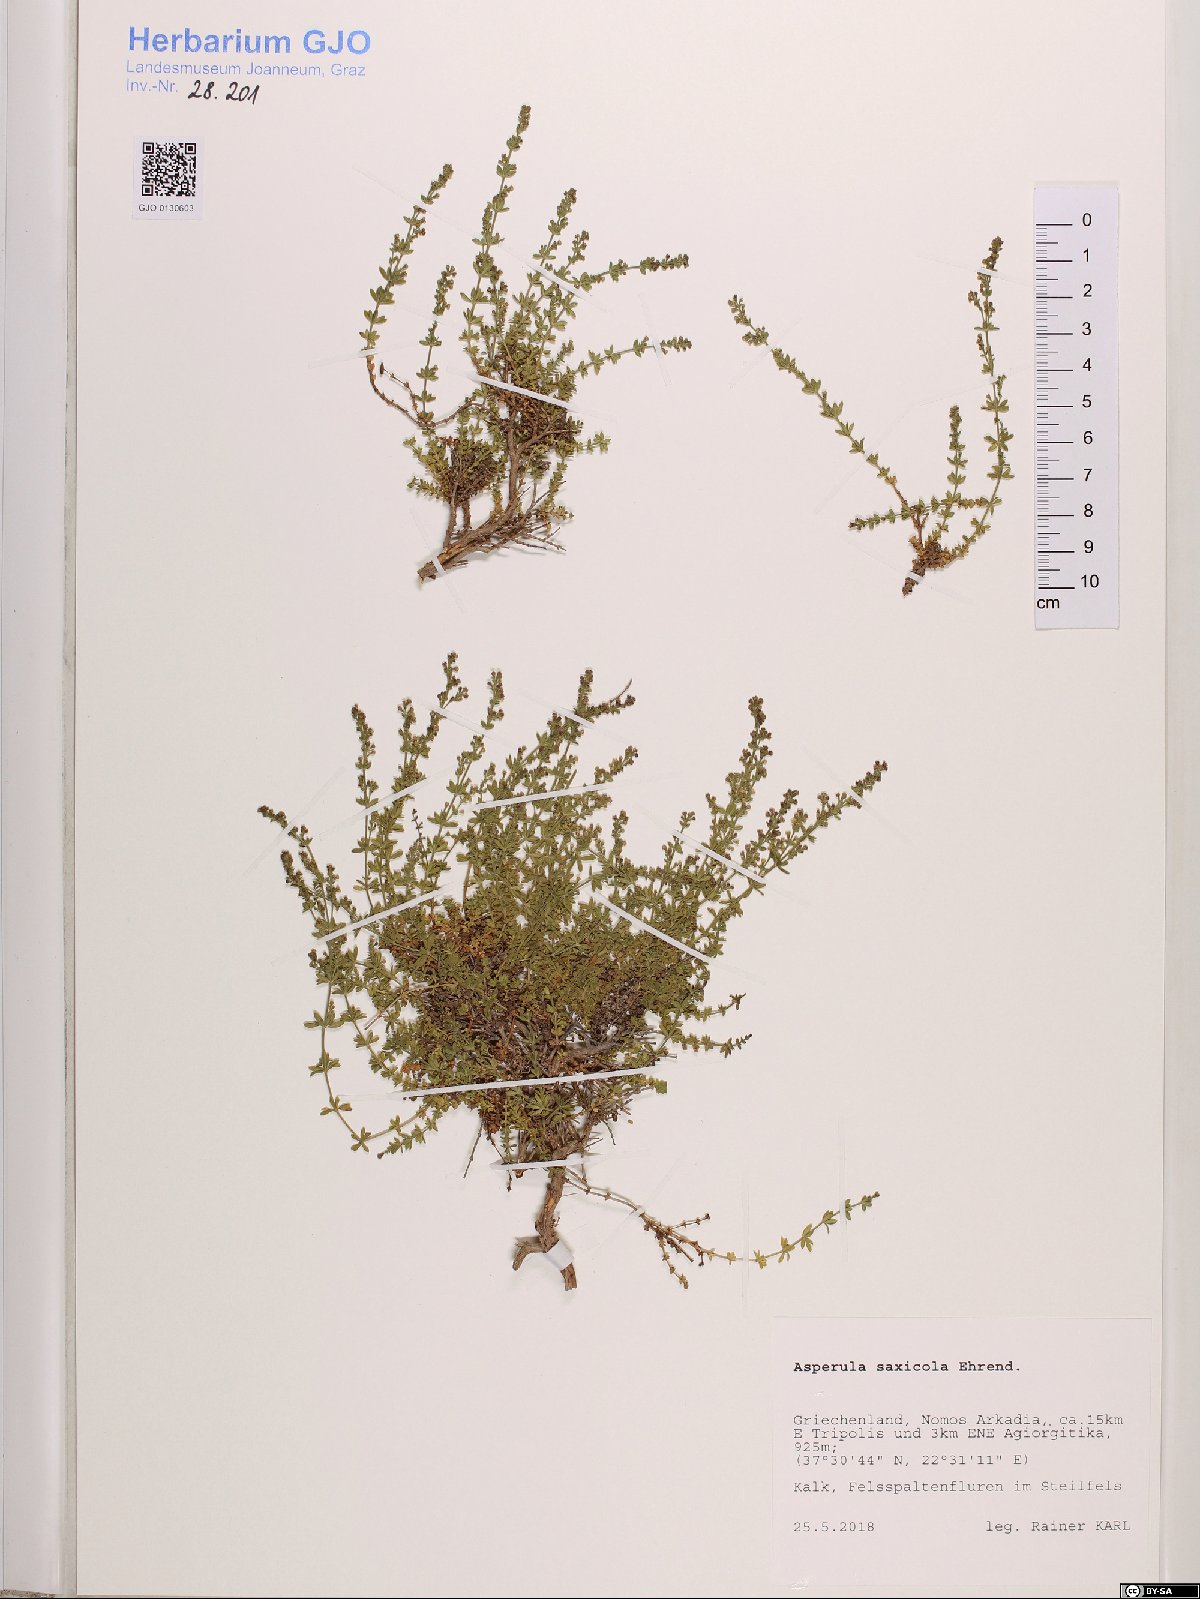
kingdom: Plantae
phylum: Tracheophyta
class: Magnoliopsida
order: Gentianales
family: Rubiaceae
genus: Thliphthisa
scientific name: Thliphthisa saxicola
